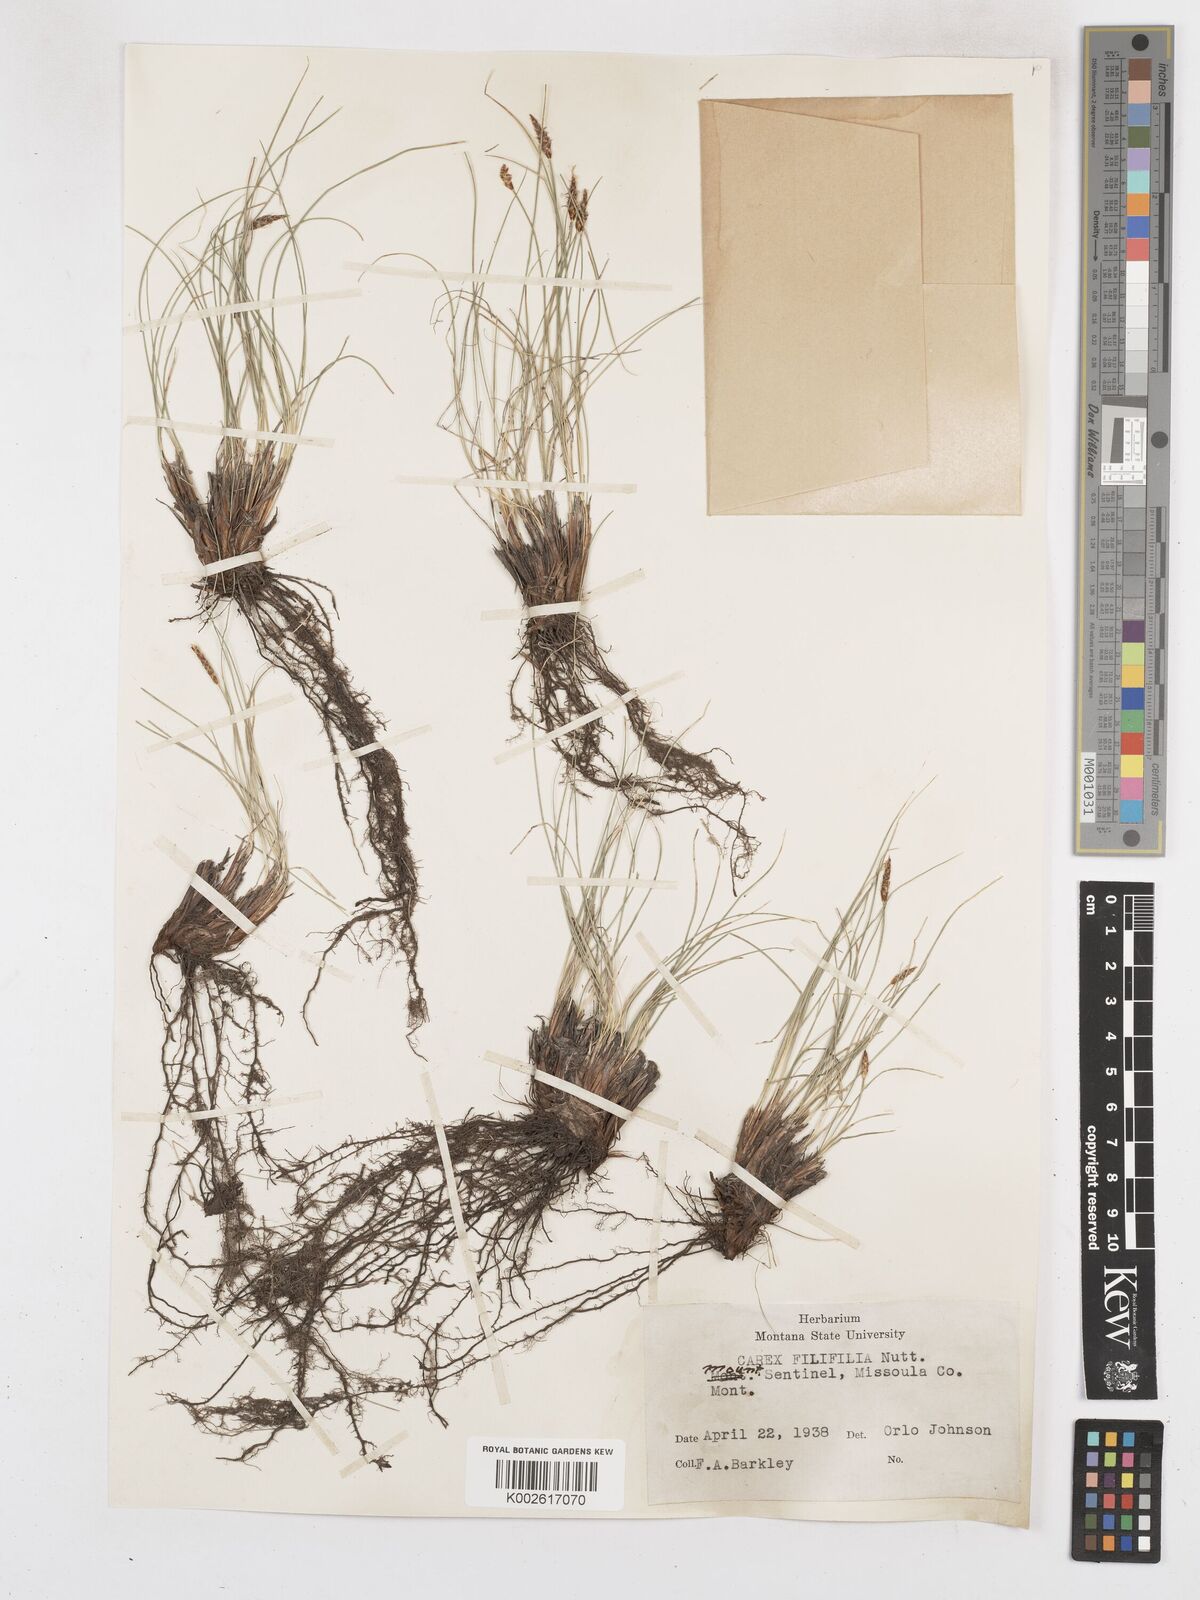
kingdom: Plantae
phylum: Tracheophyta
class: Liliopsida
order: Poales
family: Cyperaceae
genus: Carex
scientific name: Carex filifolia
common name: Threadleaf sedge
